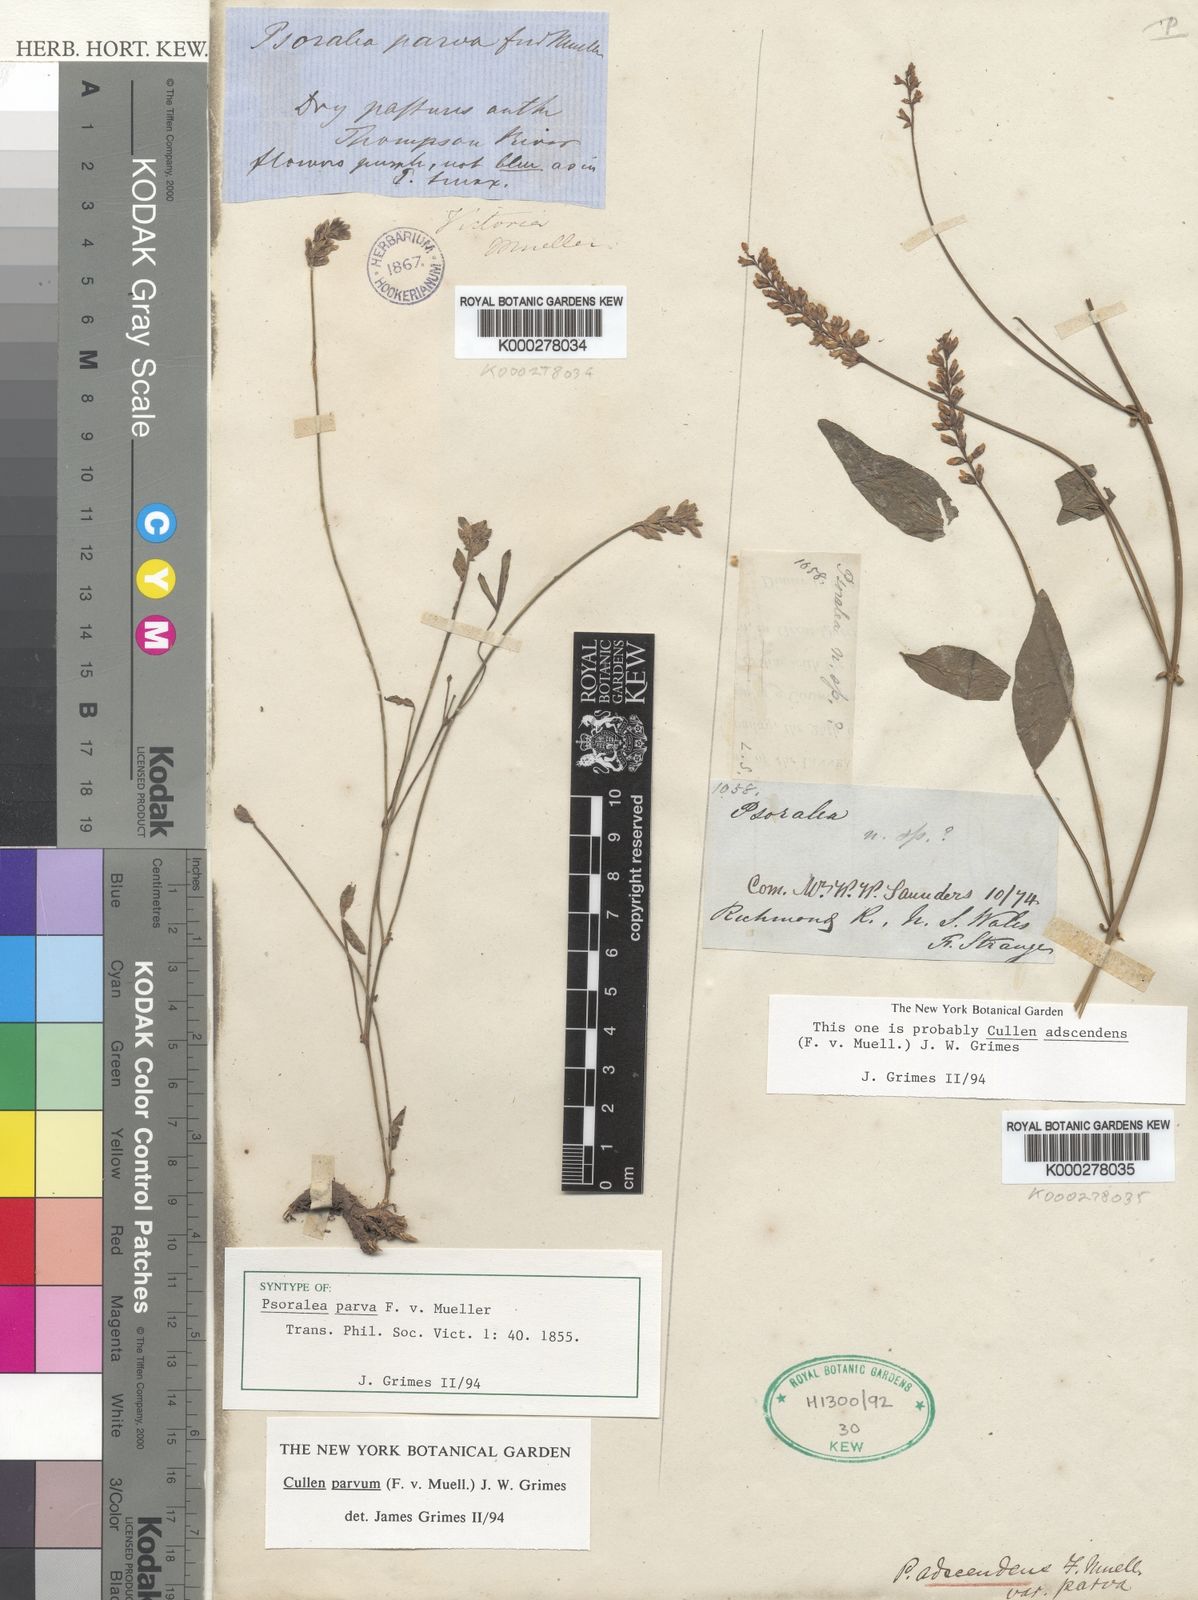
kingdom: Plantae
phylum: Tracheophyta
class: Magnoliopsida
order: Fabales
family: Fabaceae
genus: Cullen
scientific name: Cullen parvum
